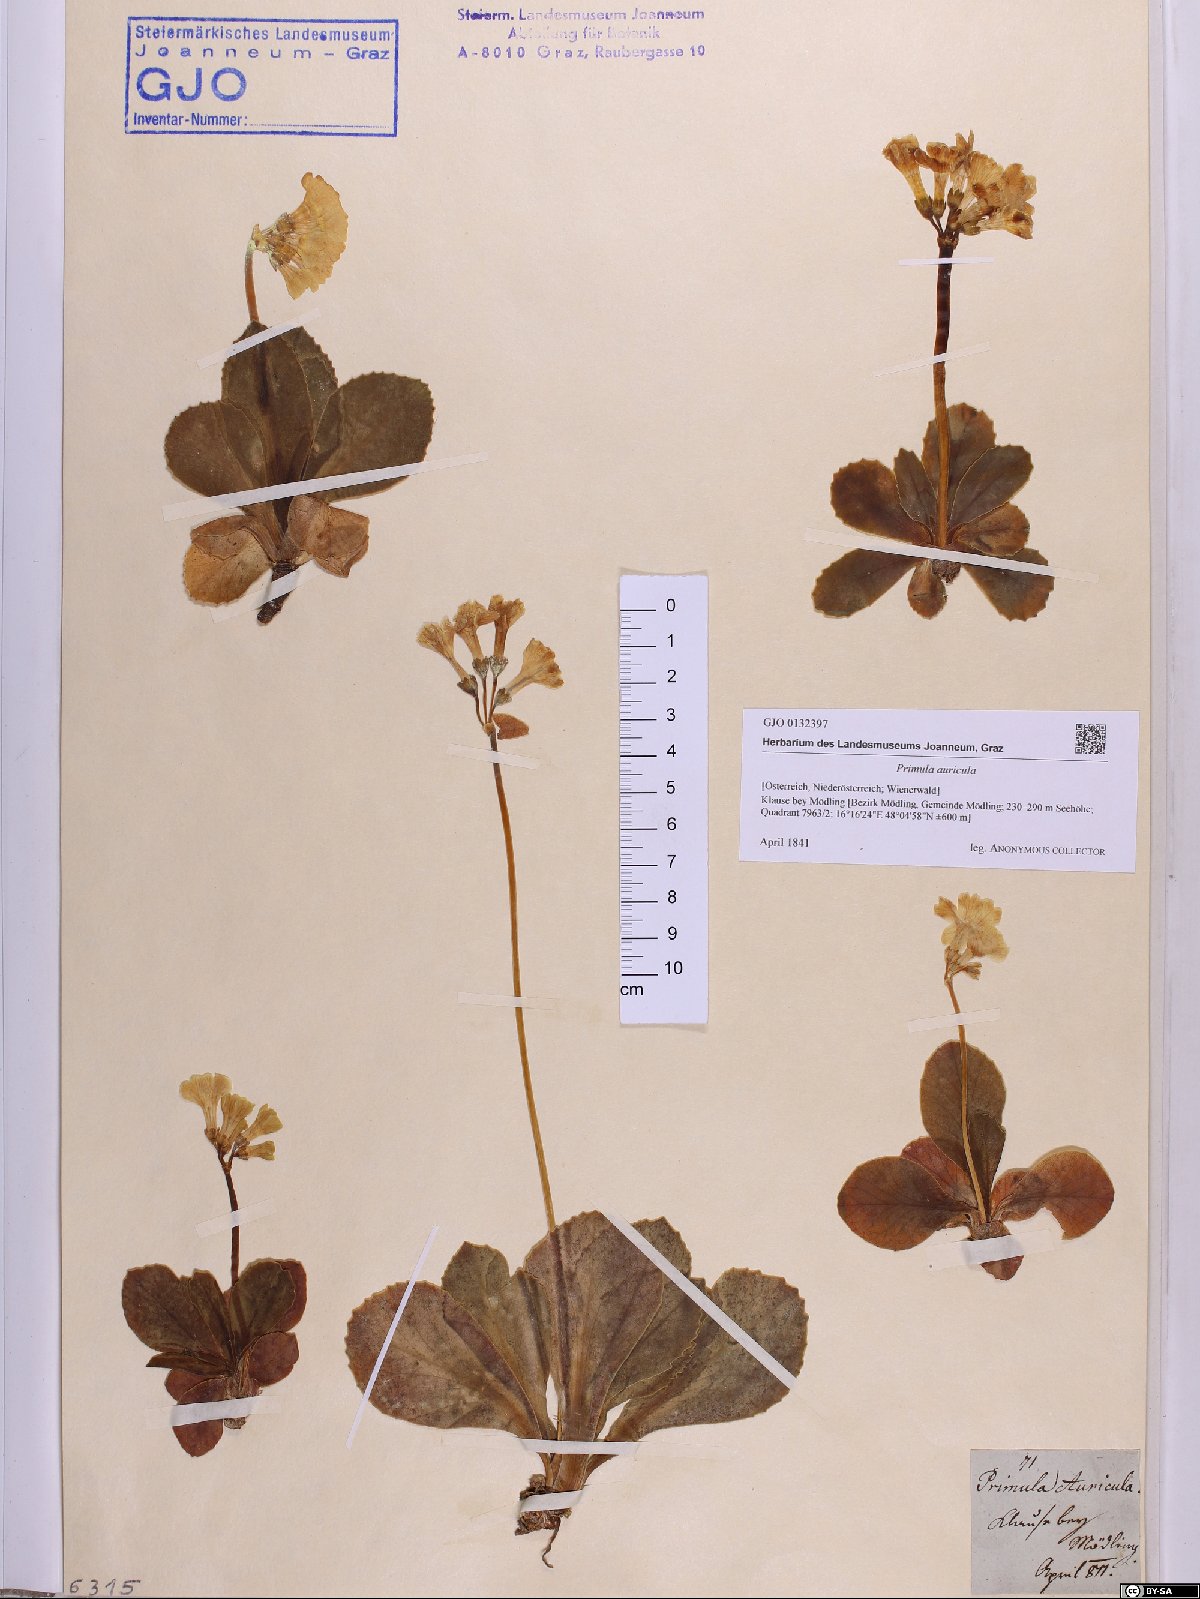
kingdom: Plantae
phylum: Tracheophyta
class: Magnoliopsida
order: Ericales
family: Primulaceae
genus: Primula
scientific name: Primula auricula
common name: Auricula
